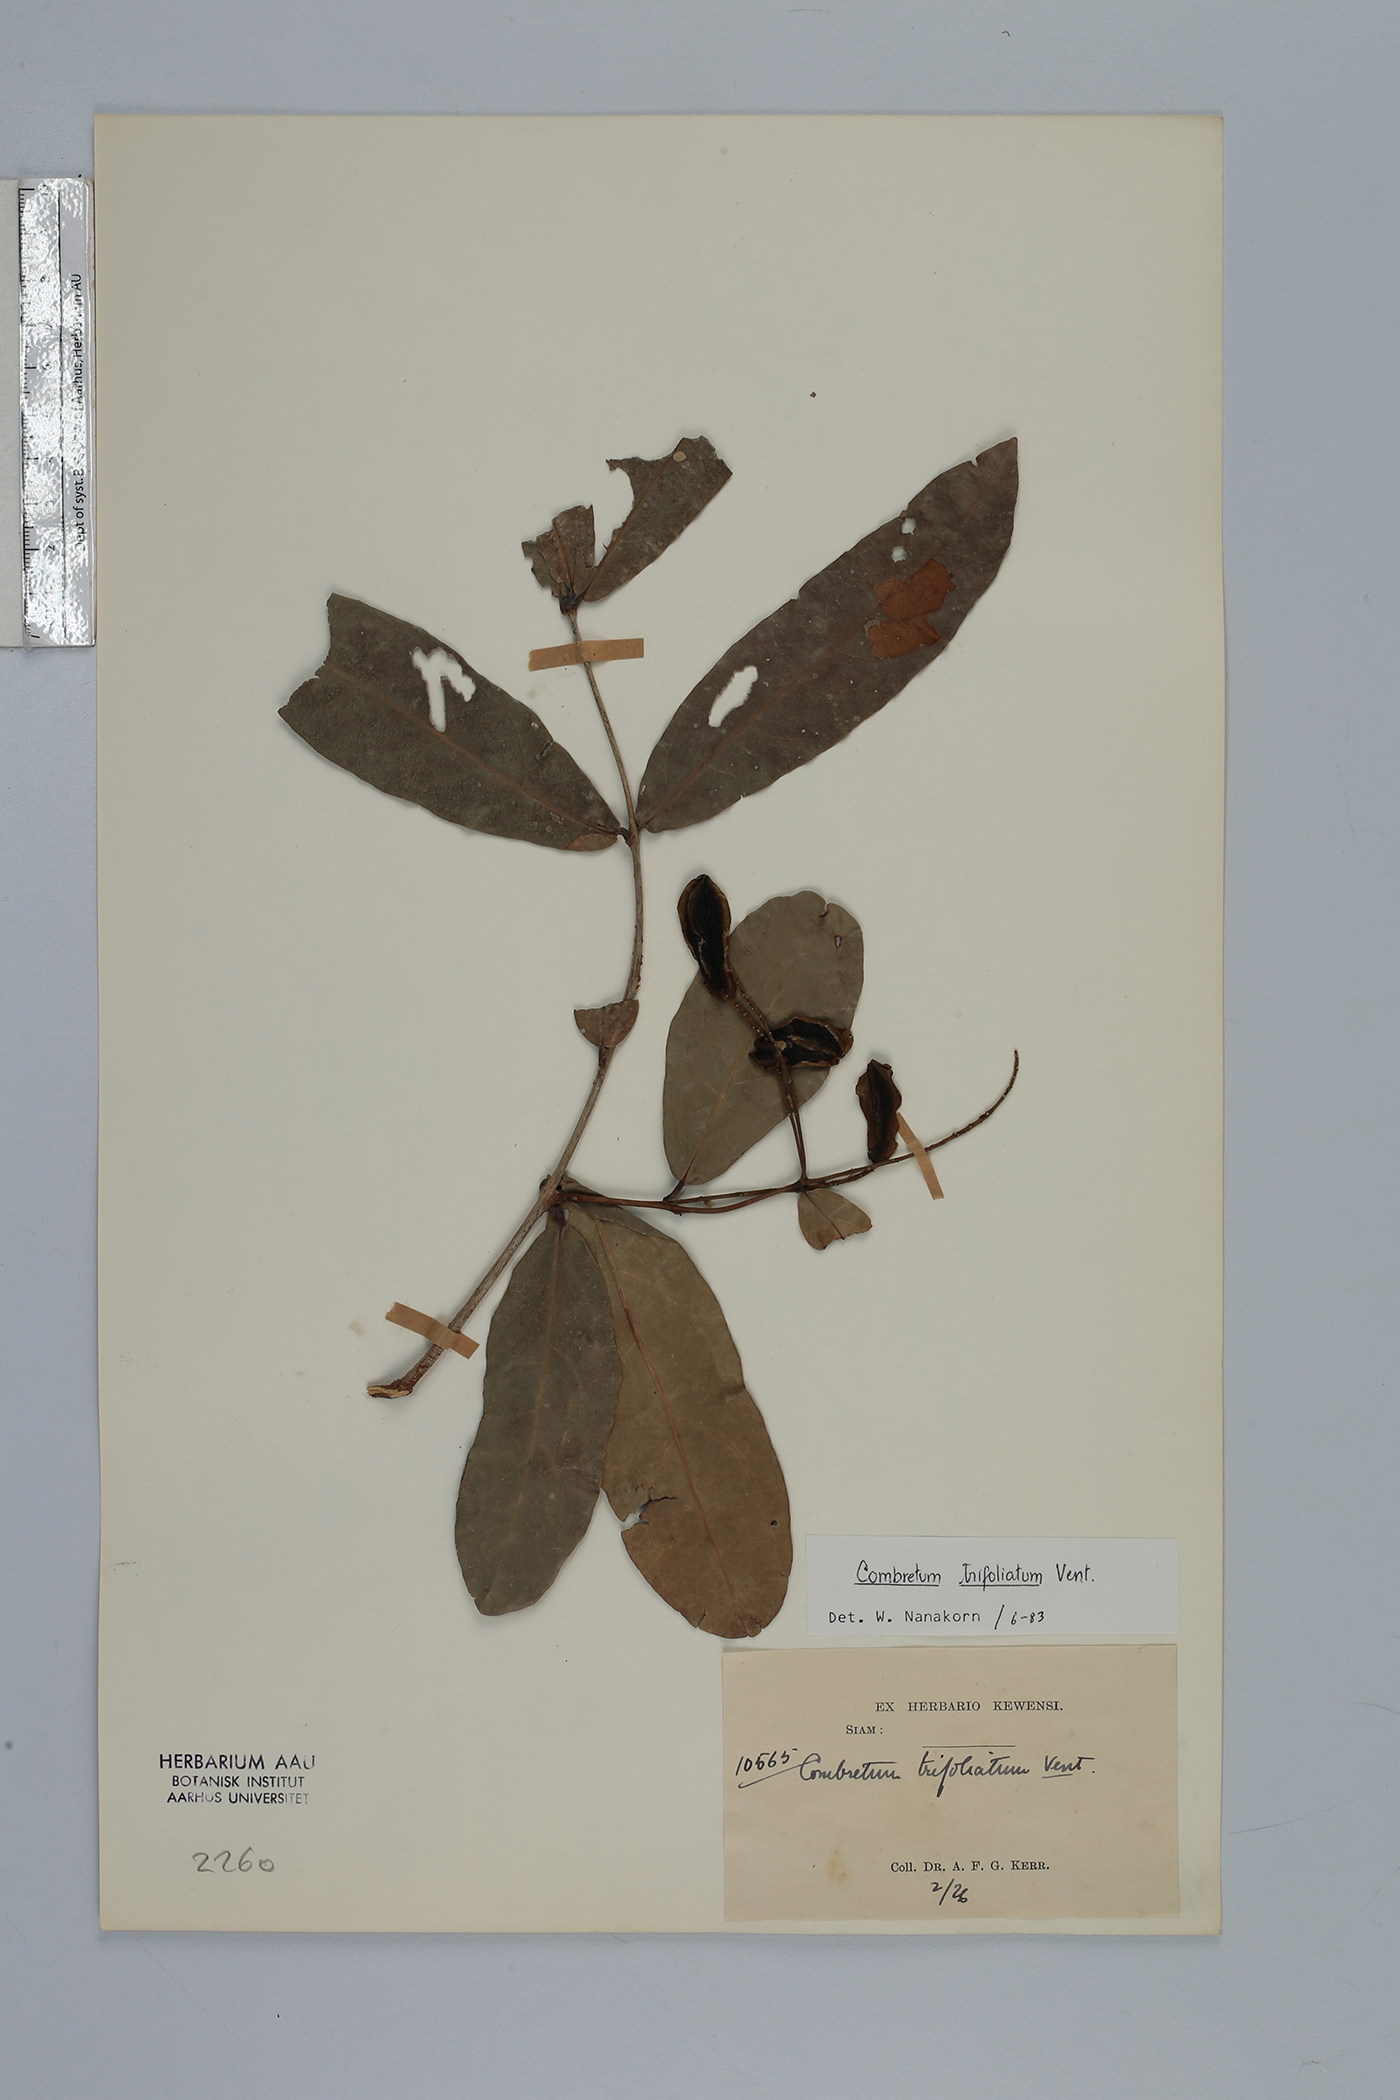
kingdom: Plantae
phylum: Tracheophyta
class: Magnoliopsida
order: Myrtales
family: Combretaceae
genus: Combretum
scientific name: Combretum trifoliatum
